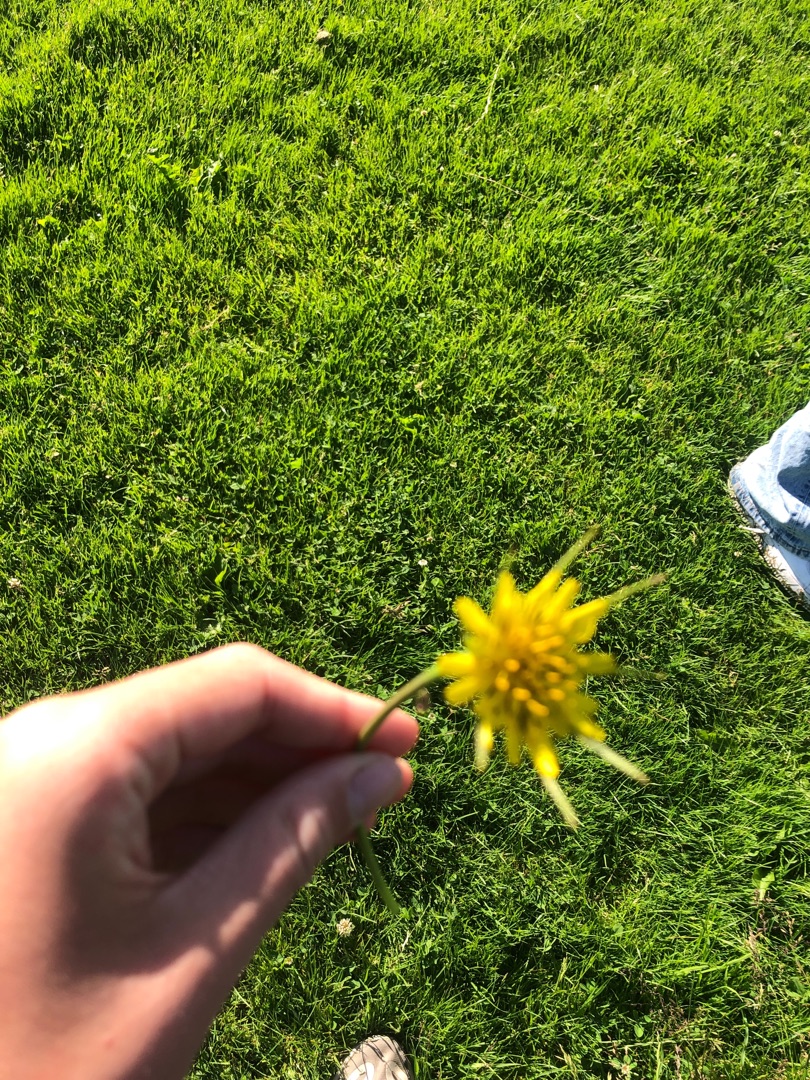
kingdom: Plantae
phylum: Tracheophyta
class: Magnoliopsida
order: Asterales
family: Asteraceae
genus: Tragopogon
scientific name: Tragopogon minor
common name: Småkronet gedeskæg
